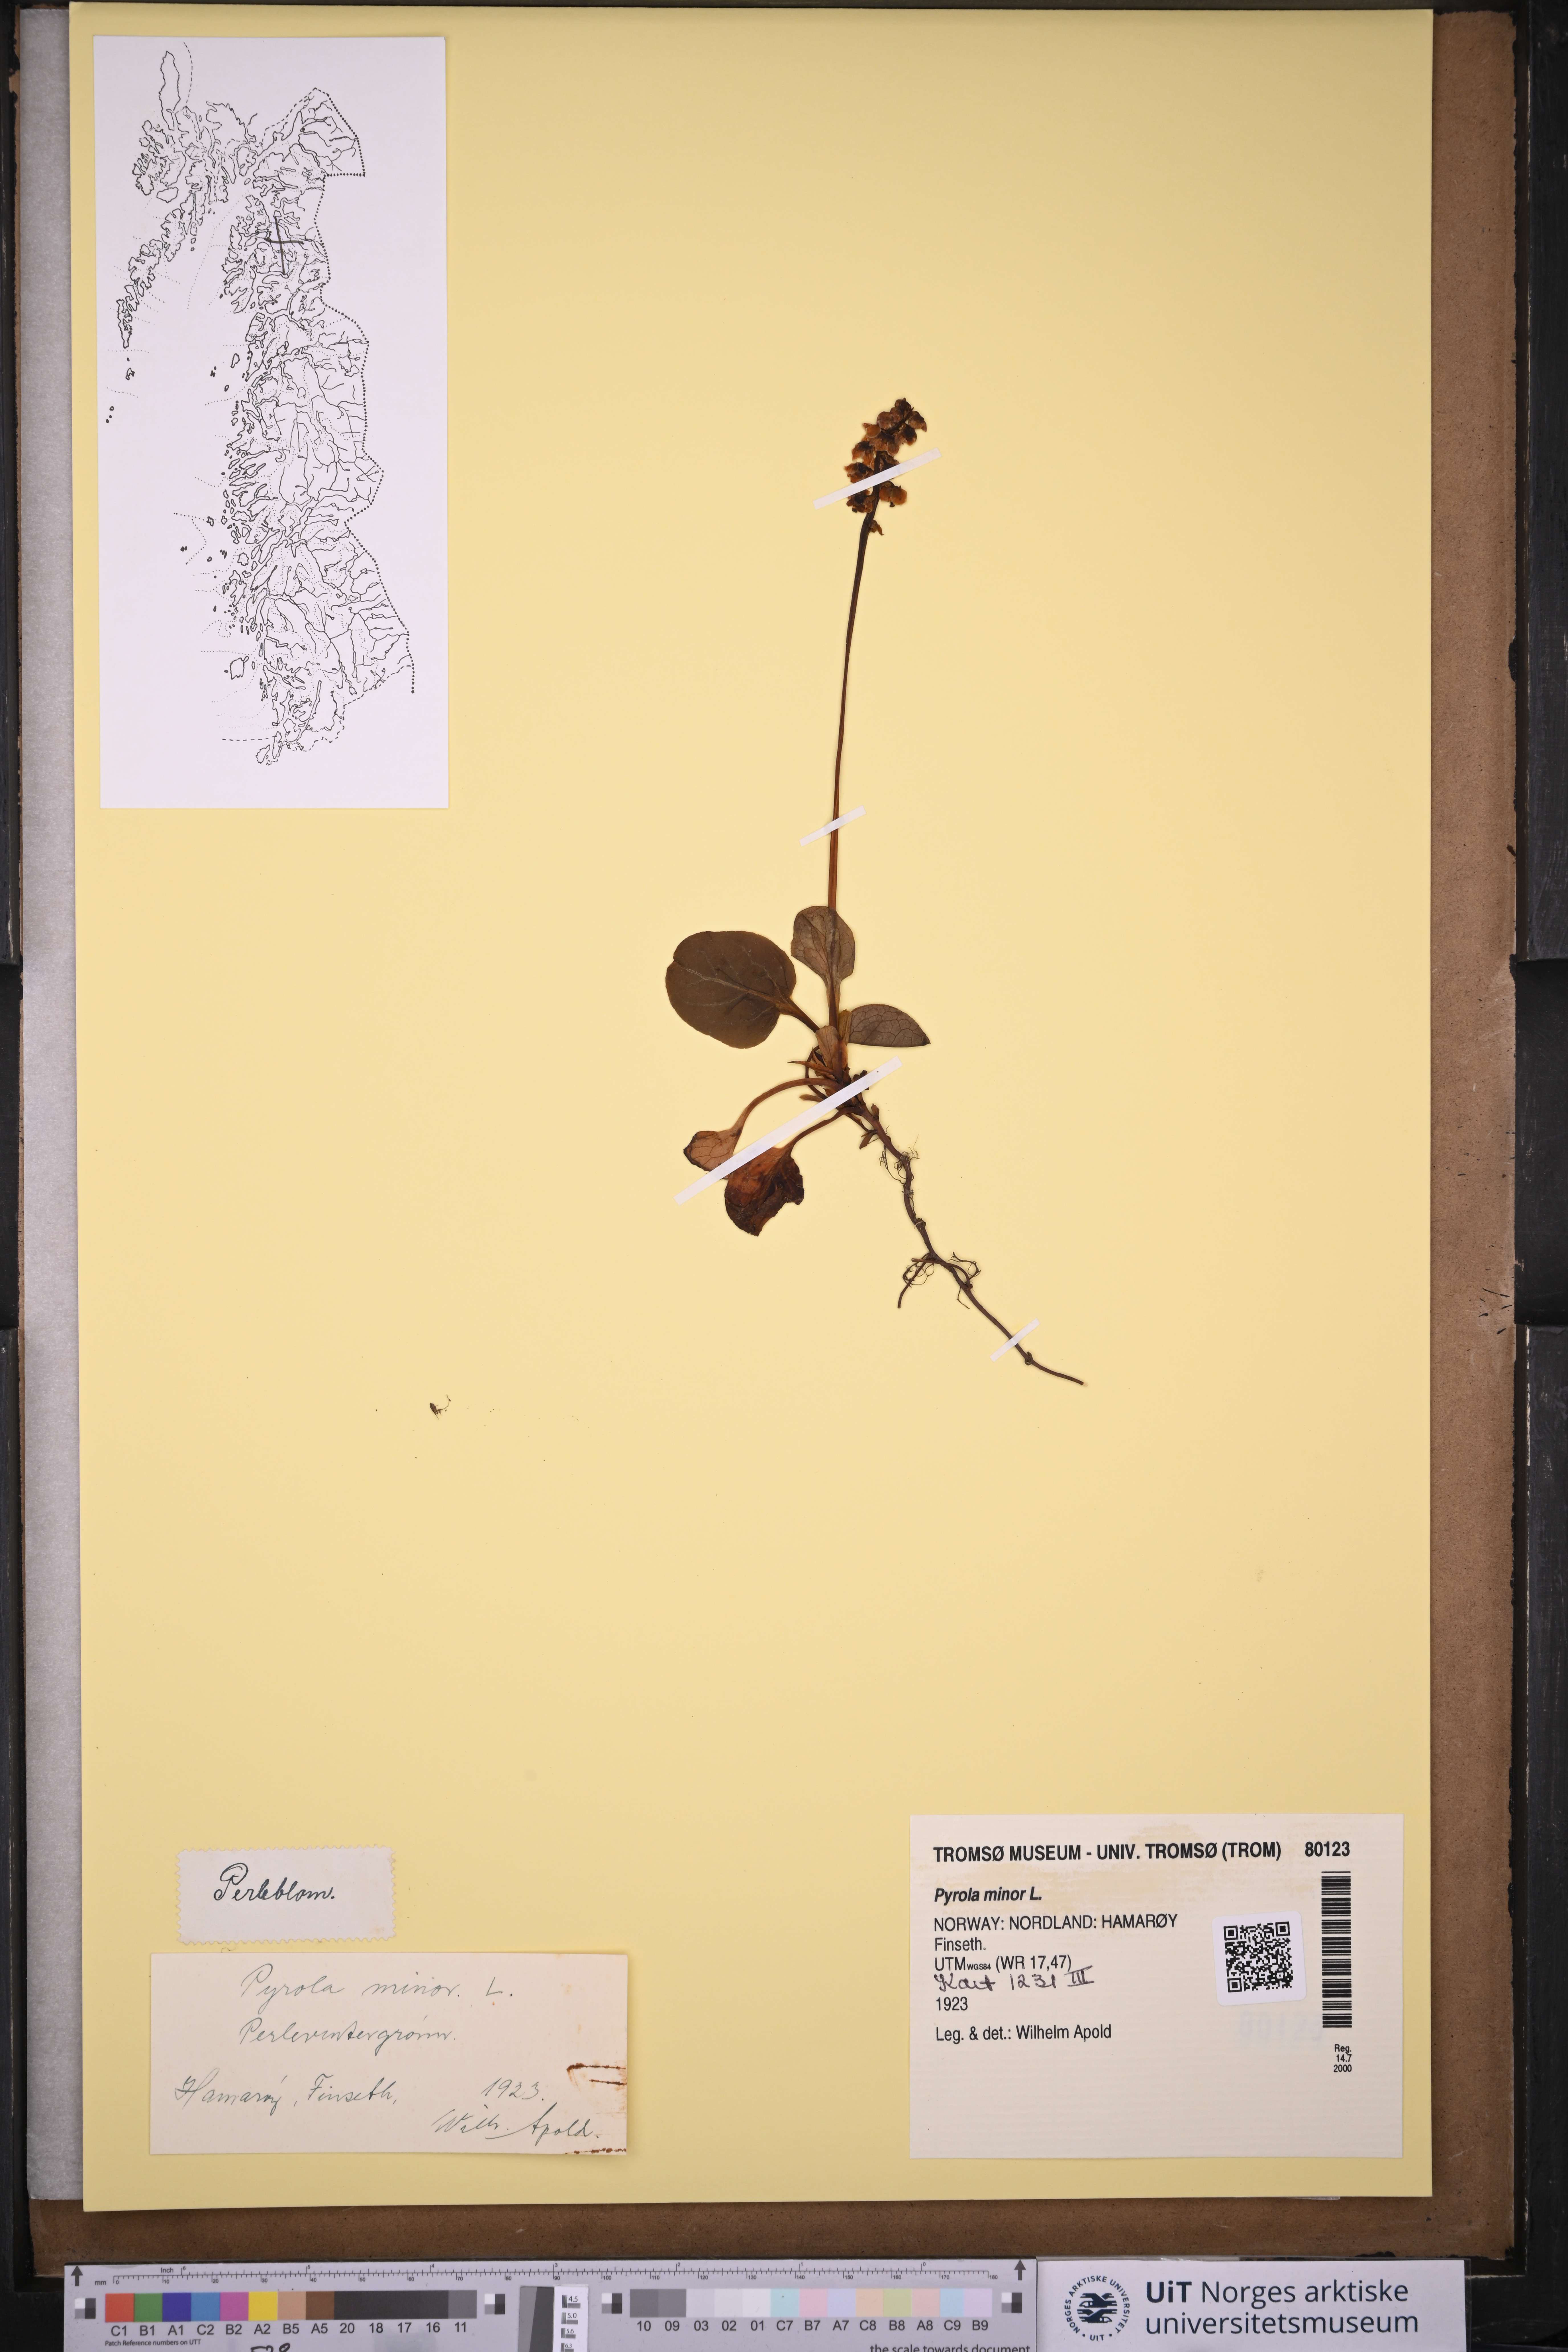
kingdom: Plantae
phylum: Tracheophyta
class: Magnoliopsida
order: Ericales
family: Ericaceae
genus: Pyrola
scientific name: Pyrola minor
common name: Common wintergreen
